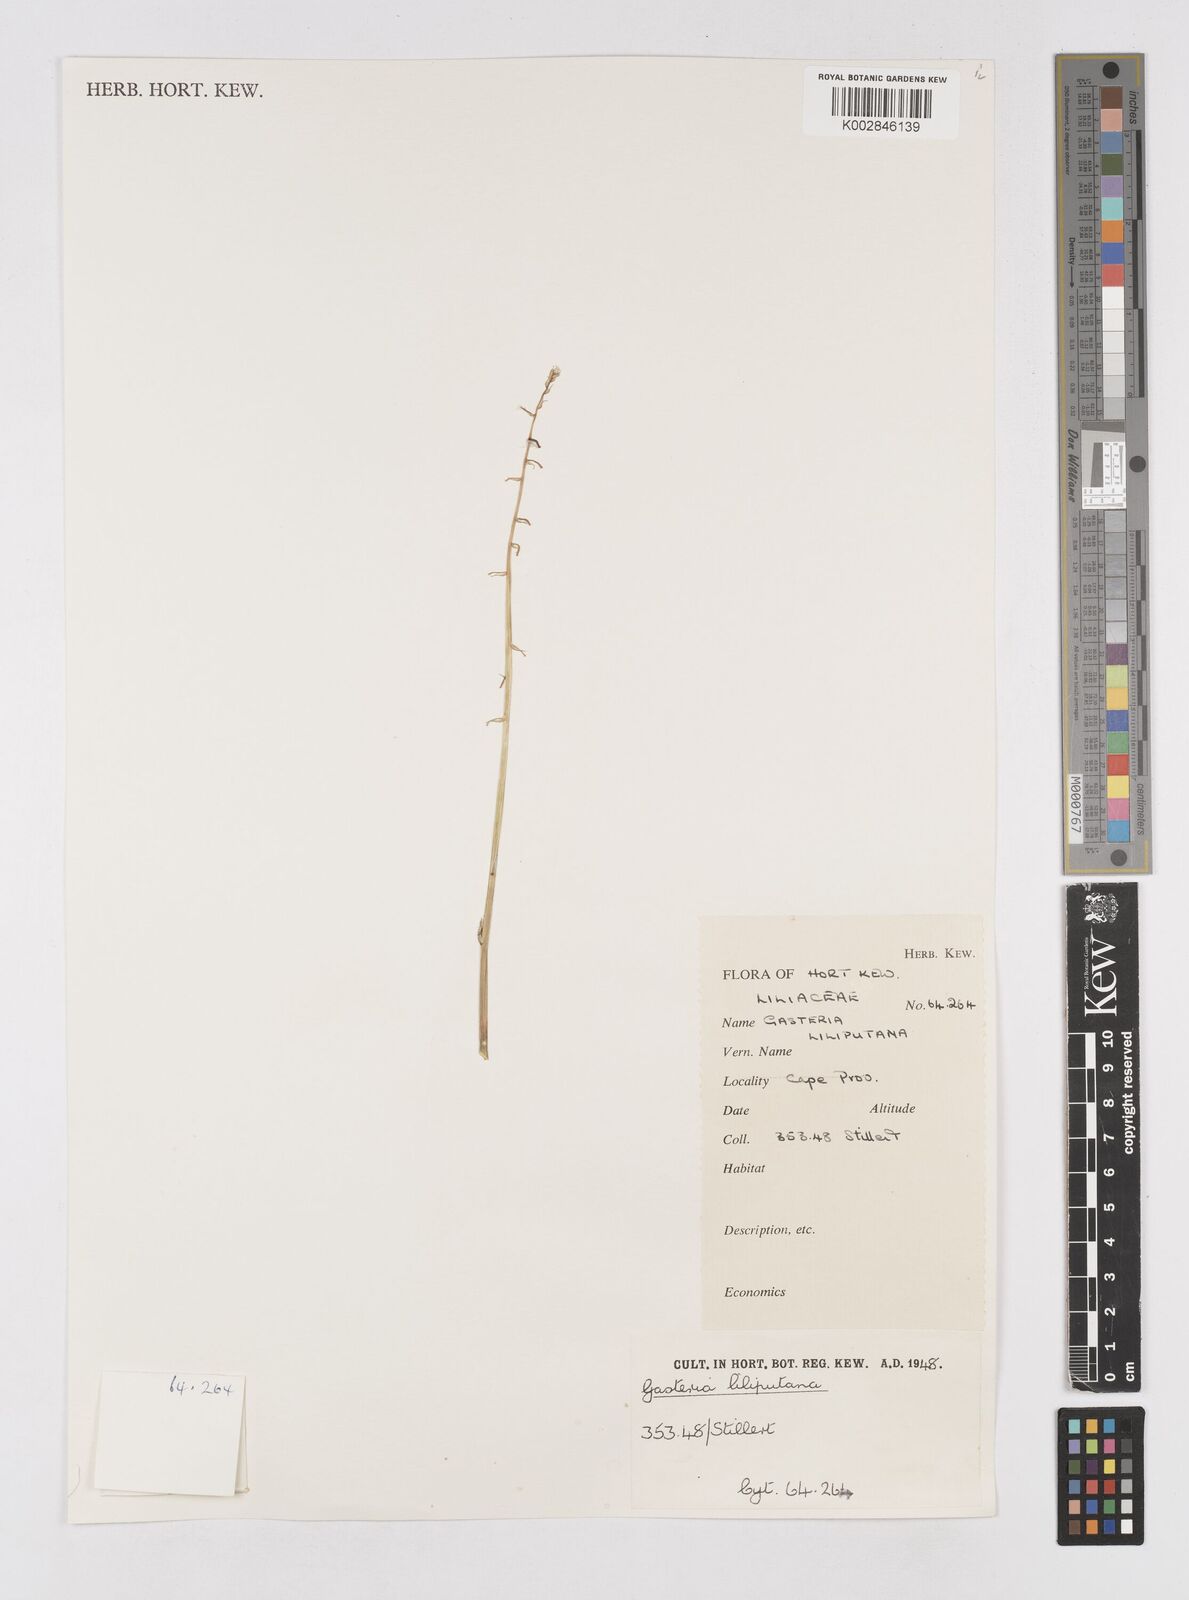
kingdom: Plantae
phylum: Tracheophyta
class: Liliopsida
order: Asparagales
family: Asphodelaceae
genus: Gasteria
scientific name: Gasteria obliqua
